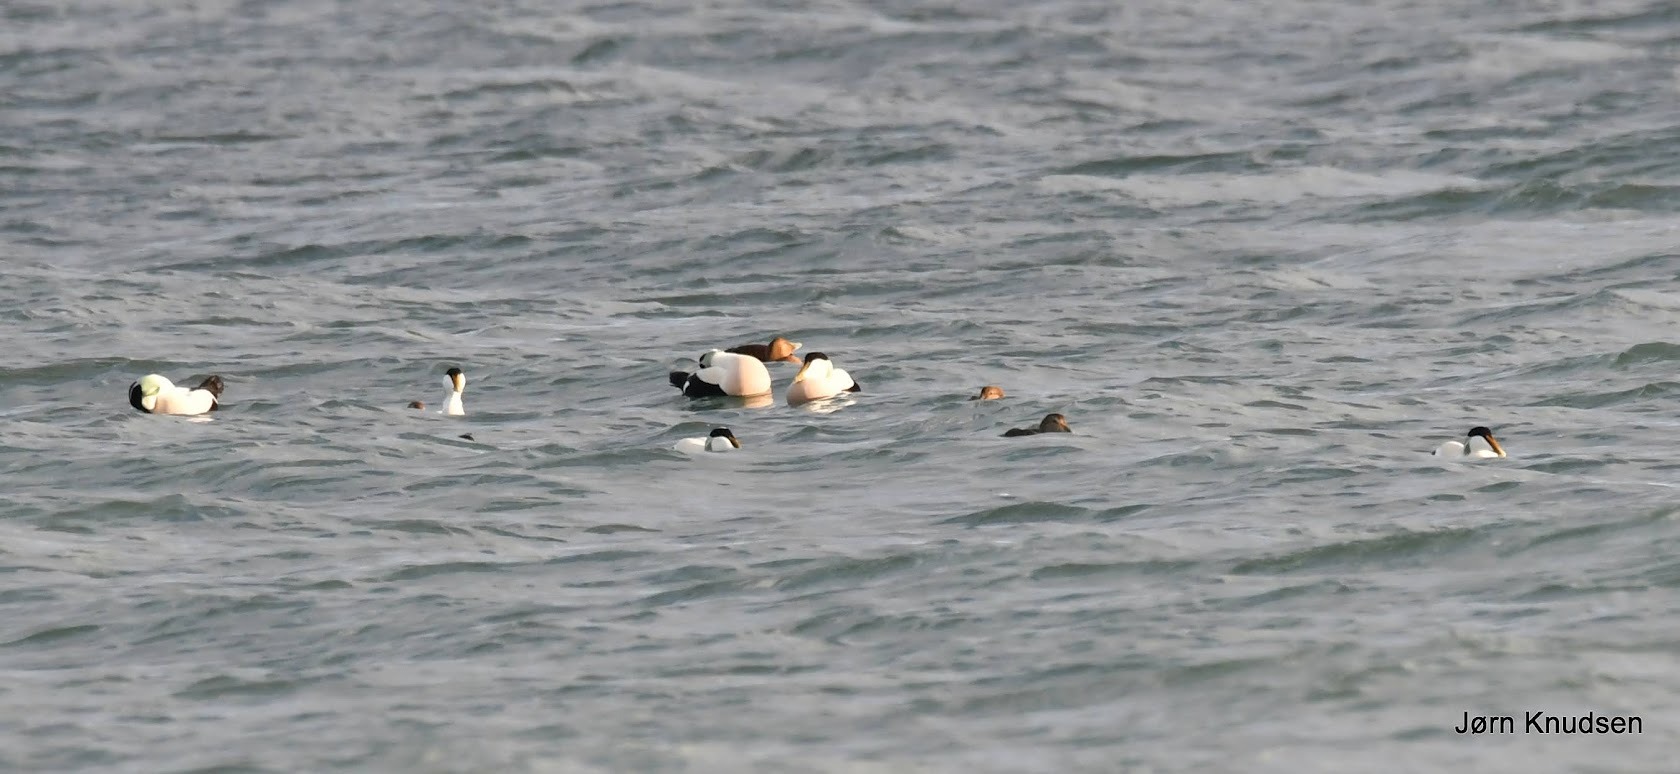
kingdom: Animalia
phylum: Chordata
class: Aves
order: Anseriformes
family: Anatidae
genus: Somateria
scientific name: Somateria mollissima
